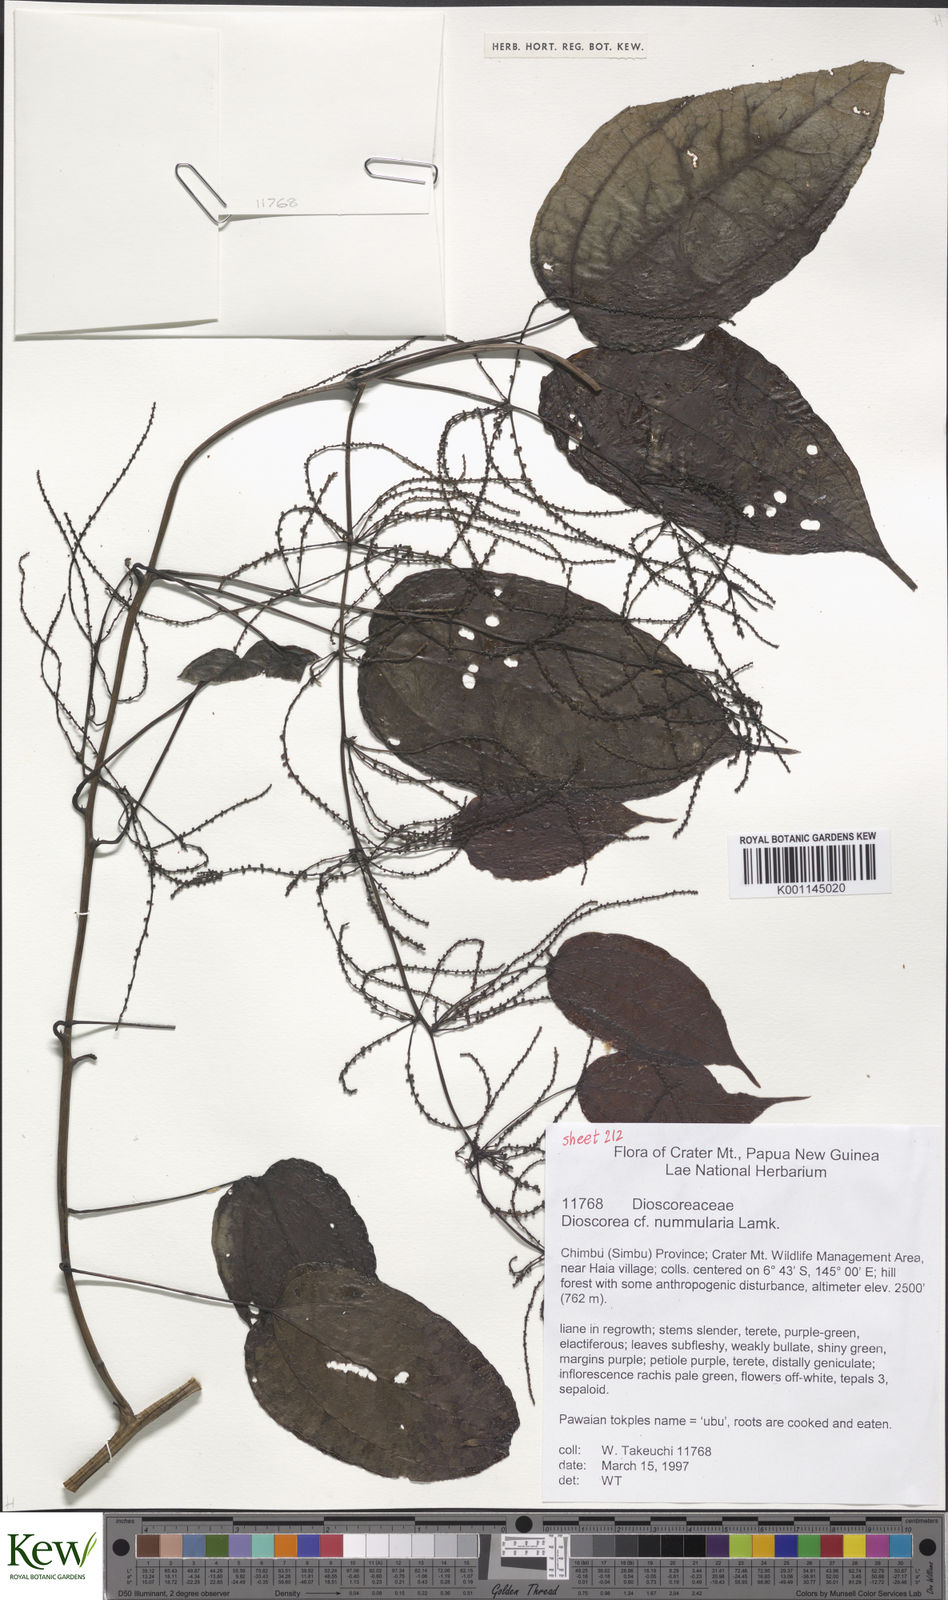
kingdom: Plantae
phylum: Tracheophyta
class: Liliopsida
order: Dioscoreales
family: Dioscoreaceae
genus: Dioscorea
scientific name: Dioscorea nummularia
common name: Pacific yam
